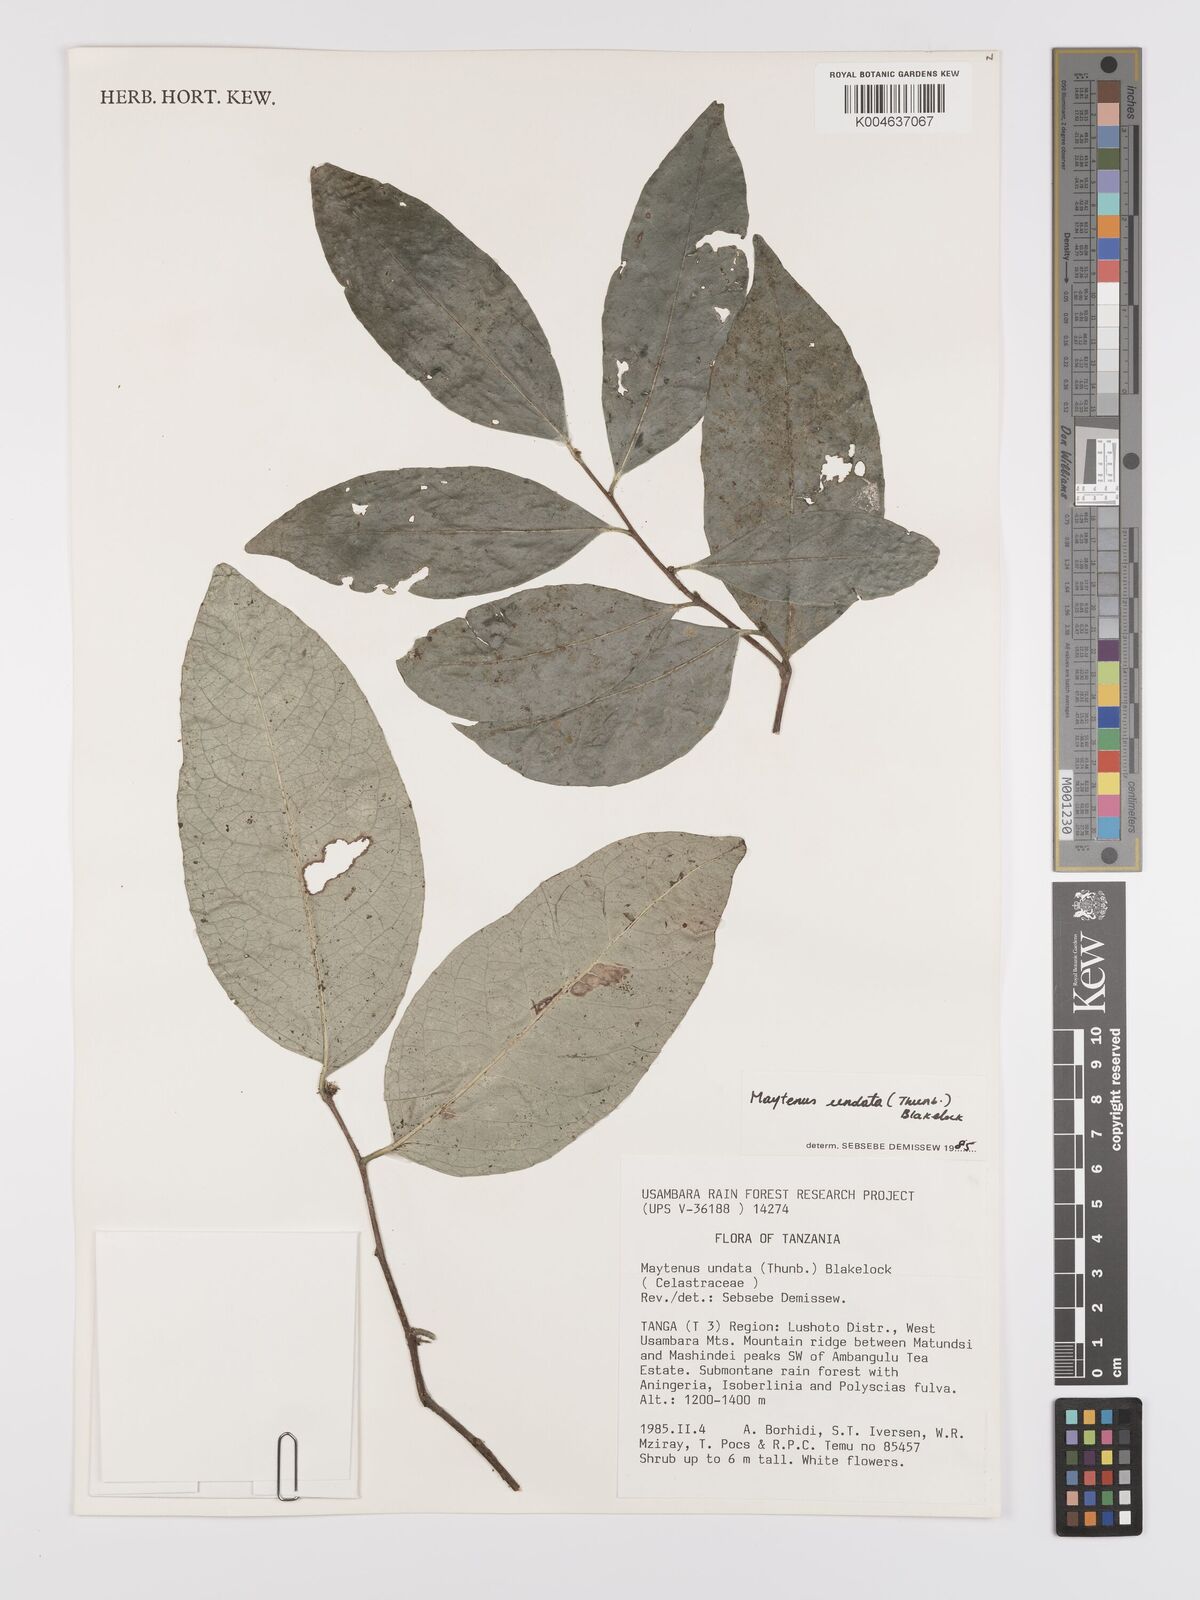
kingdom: Plantae
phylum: Tracheophyta
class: Magnoliopsida
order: Celastrales
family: Celastraceae
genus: Gymnosporia
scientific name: Gymnosporia undata
